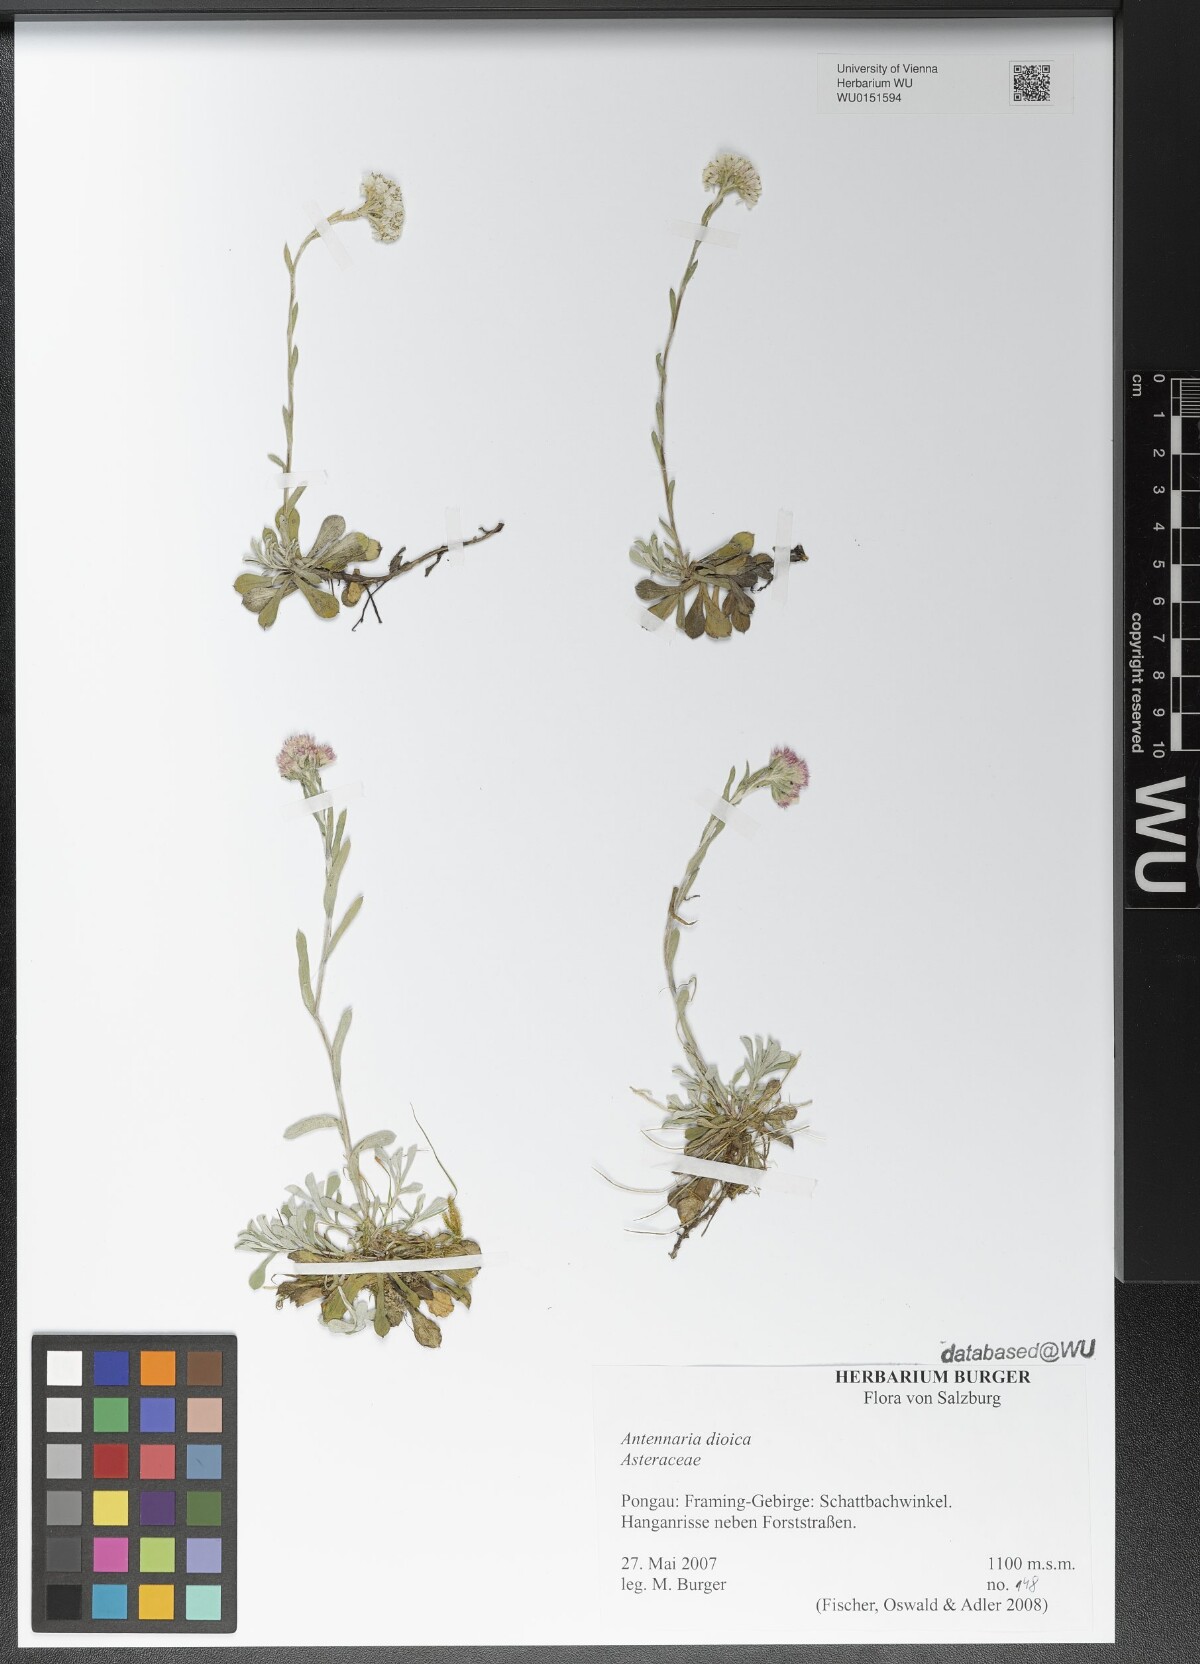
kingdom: Plantae
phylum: Tracheophyta
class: Magnoliopsida
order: Asterales
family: Asteraceae
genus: Antennaria
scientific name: Antennaria dioica
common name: Mountain everlasting
